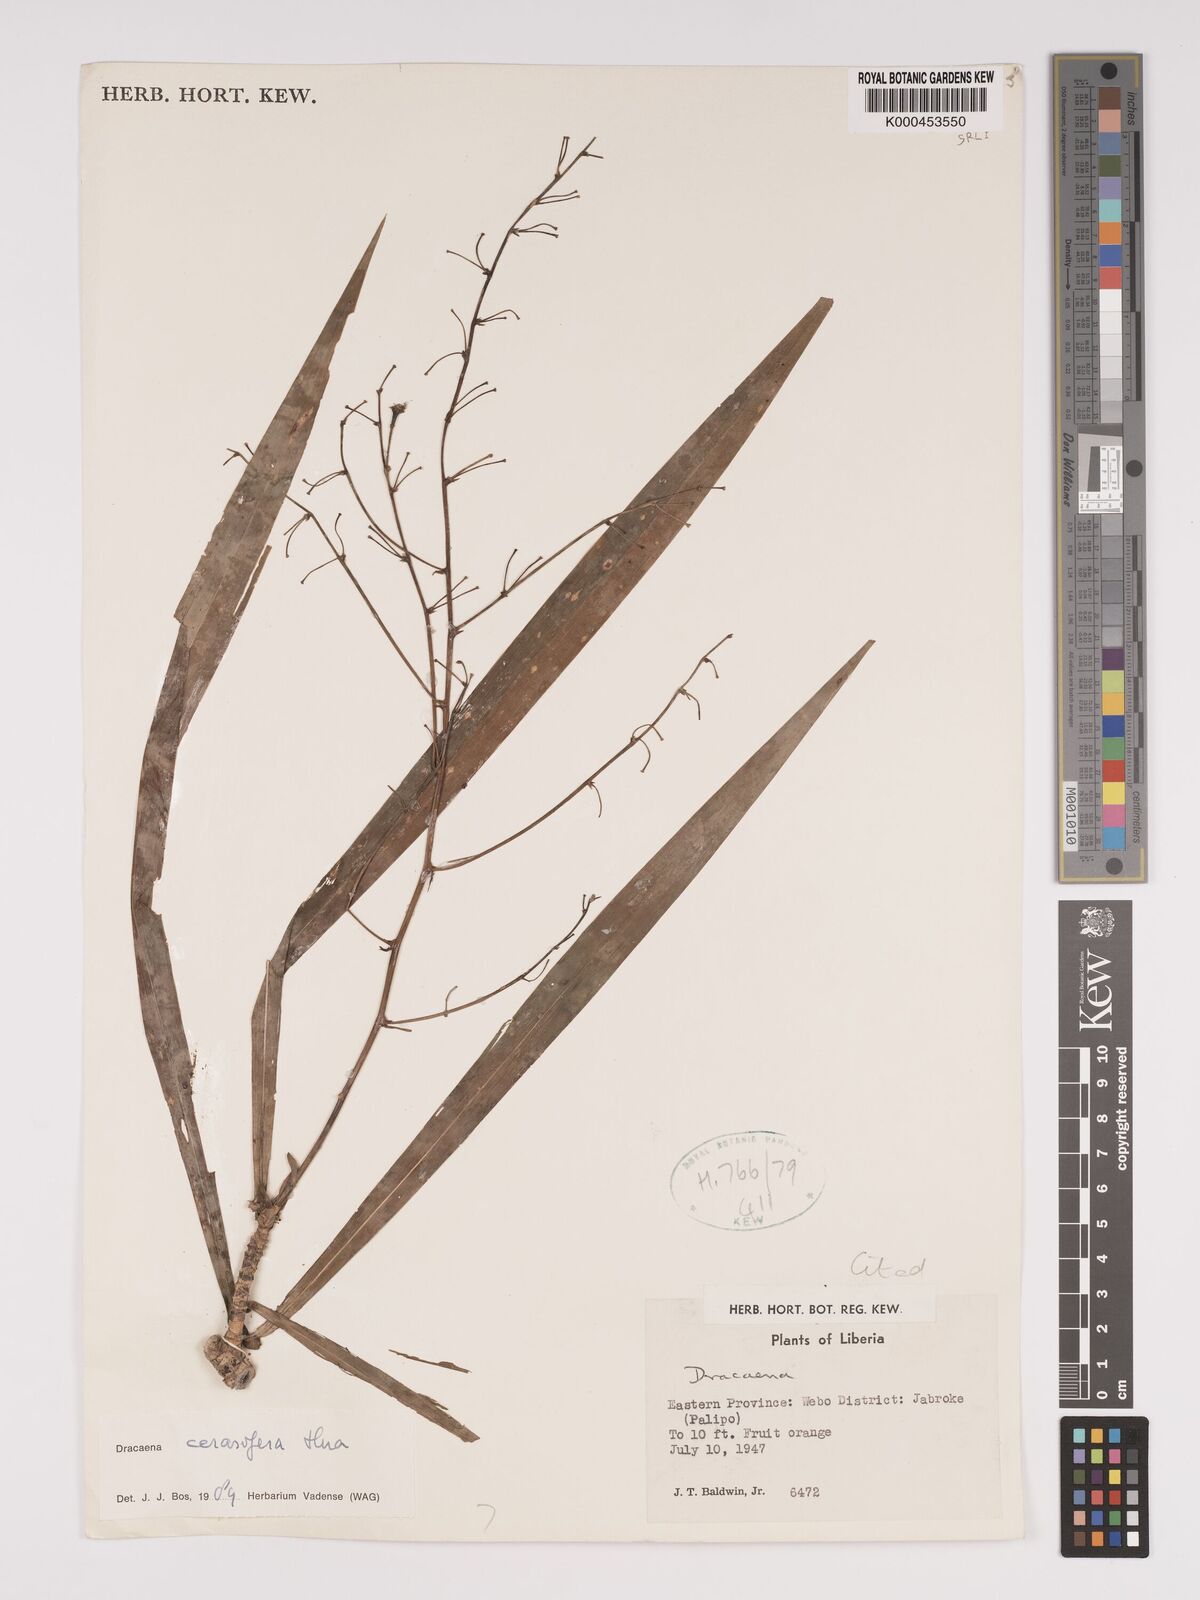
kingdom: Plantae
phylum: Tracheophyta
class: Liliopsida
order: Asparagales
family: Asparagaceae
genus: Dracaena
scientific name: Dracaena cerasifera
